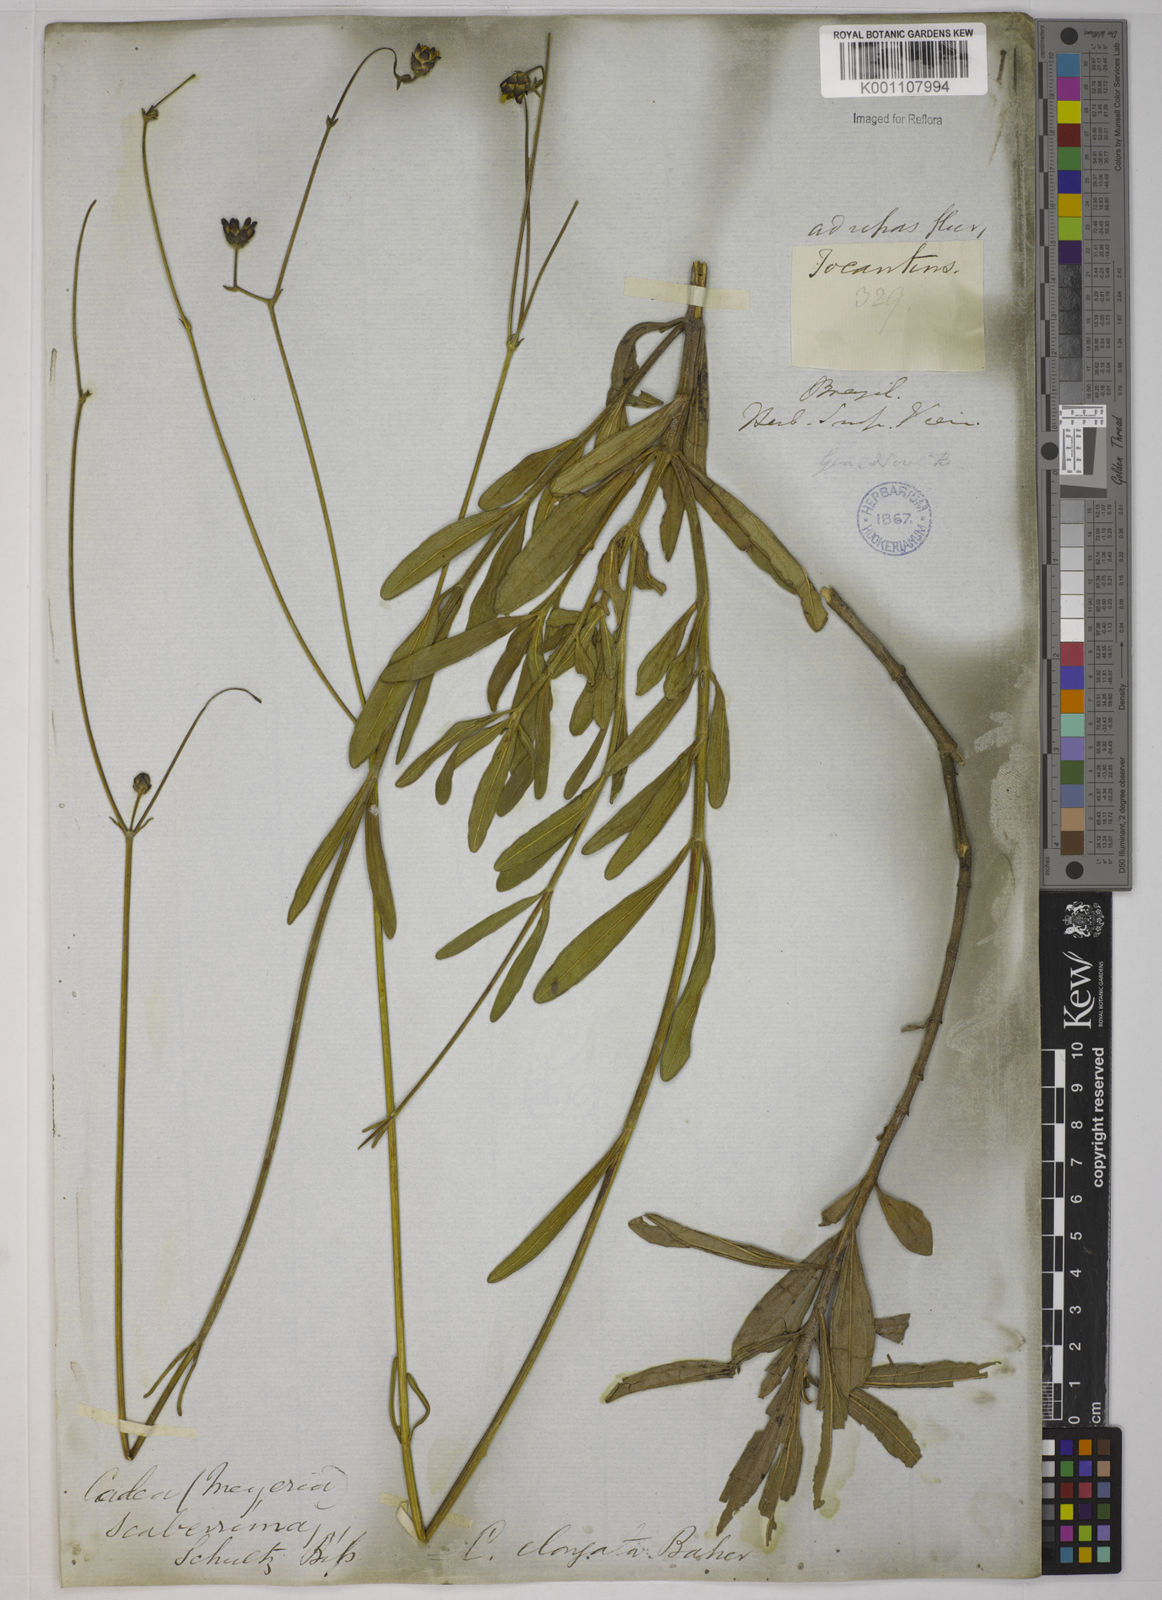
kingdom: Plantae
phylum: Tracheophyta
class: Magnoliopsida
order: Asterales
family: Asteraceae
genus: Calea
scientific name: Calea elongata
